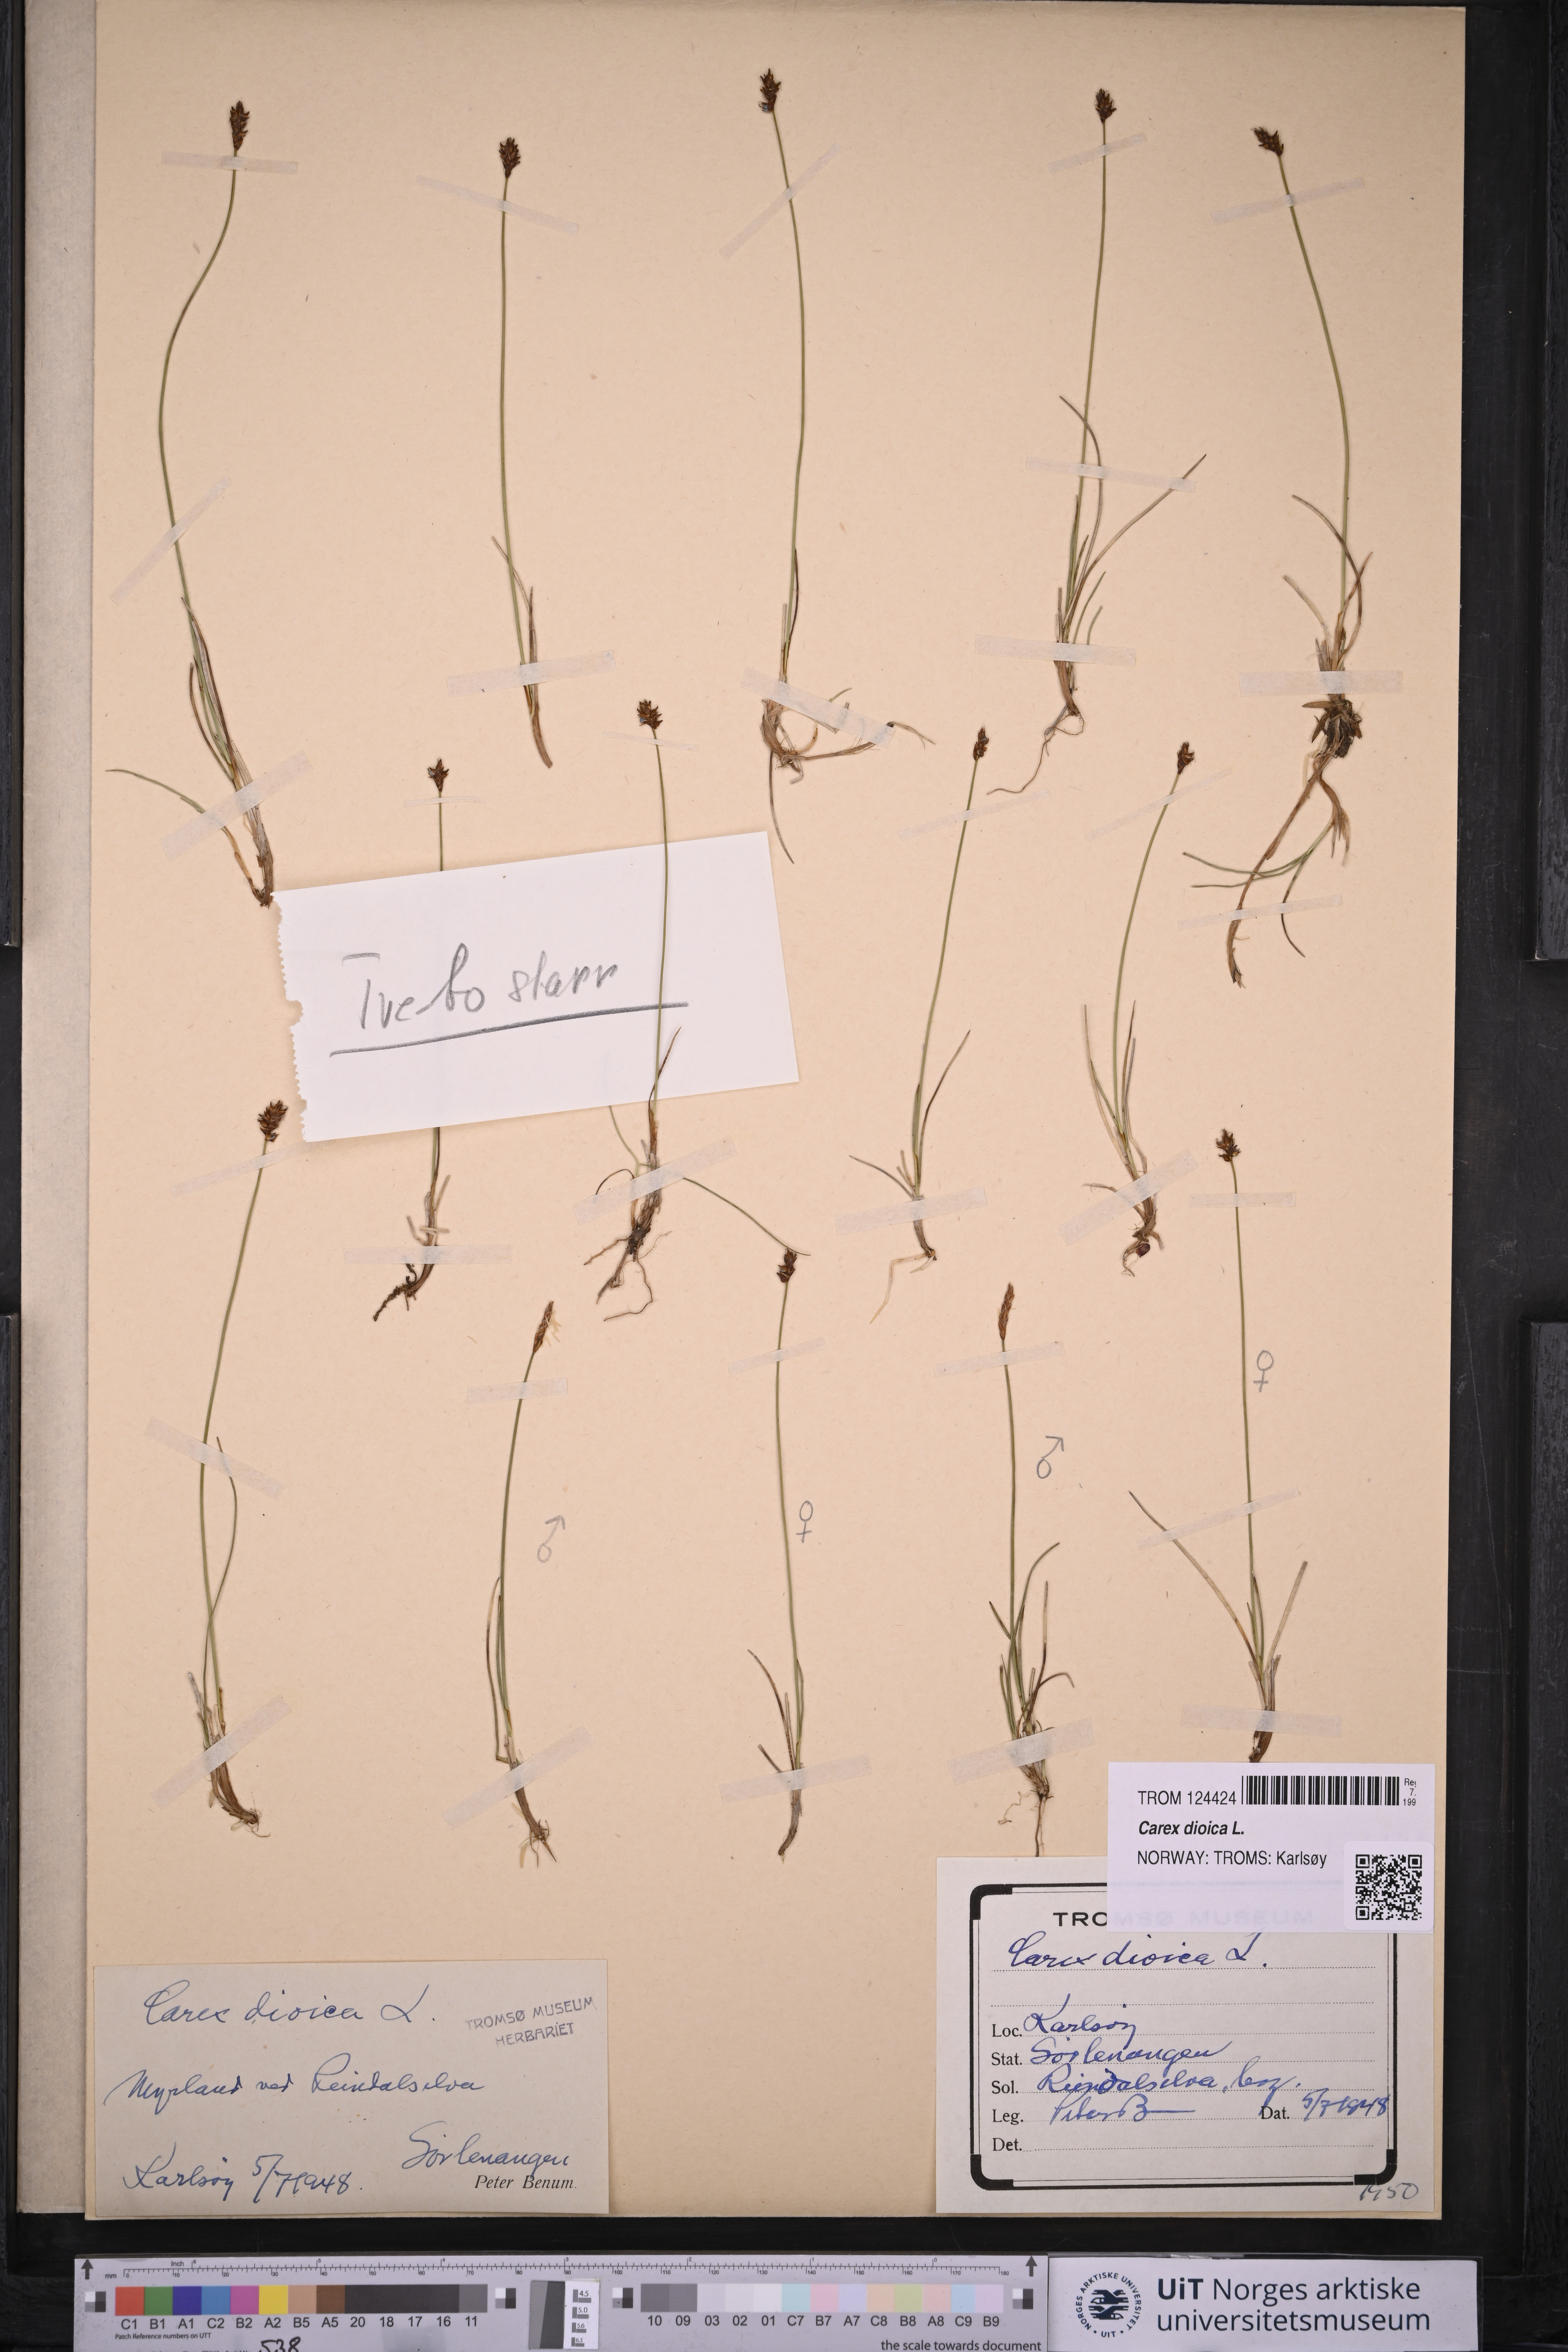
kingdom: Plantae
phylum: Tracheophyta
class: Liliopsida
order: Poales
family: Cyperaceae
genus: Carex
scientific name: Carex dioica
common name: Dioecious sedge
